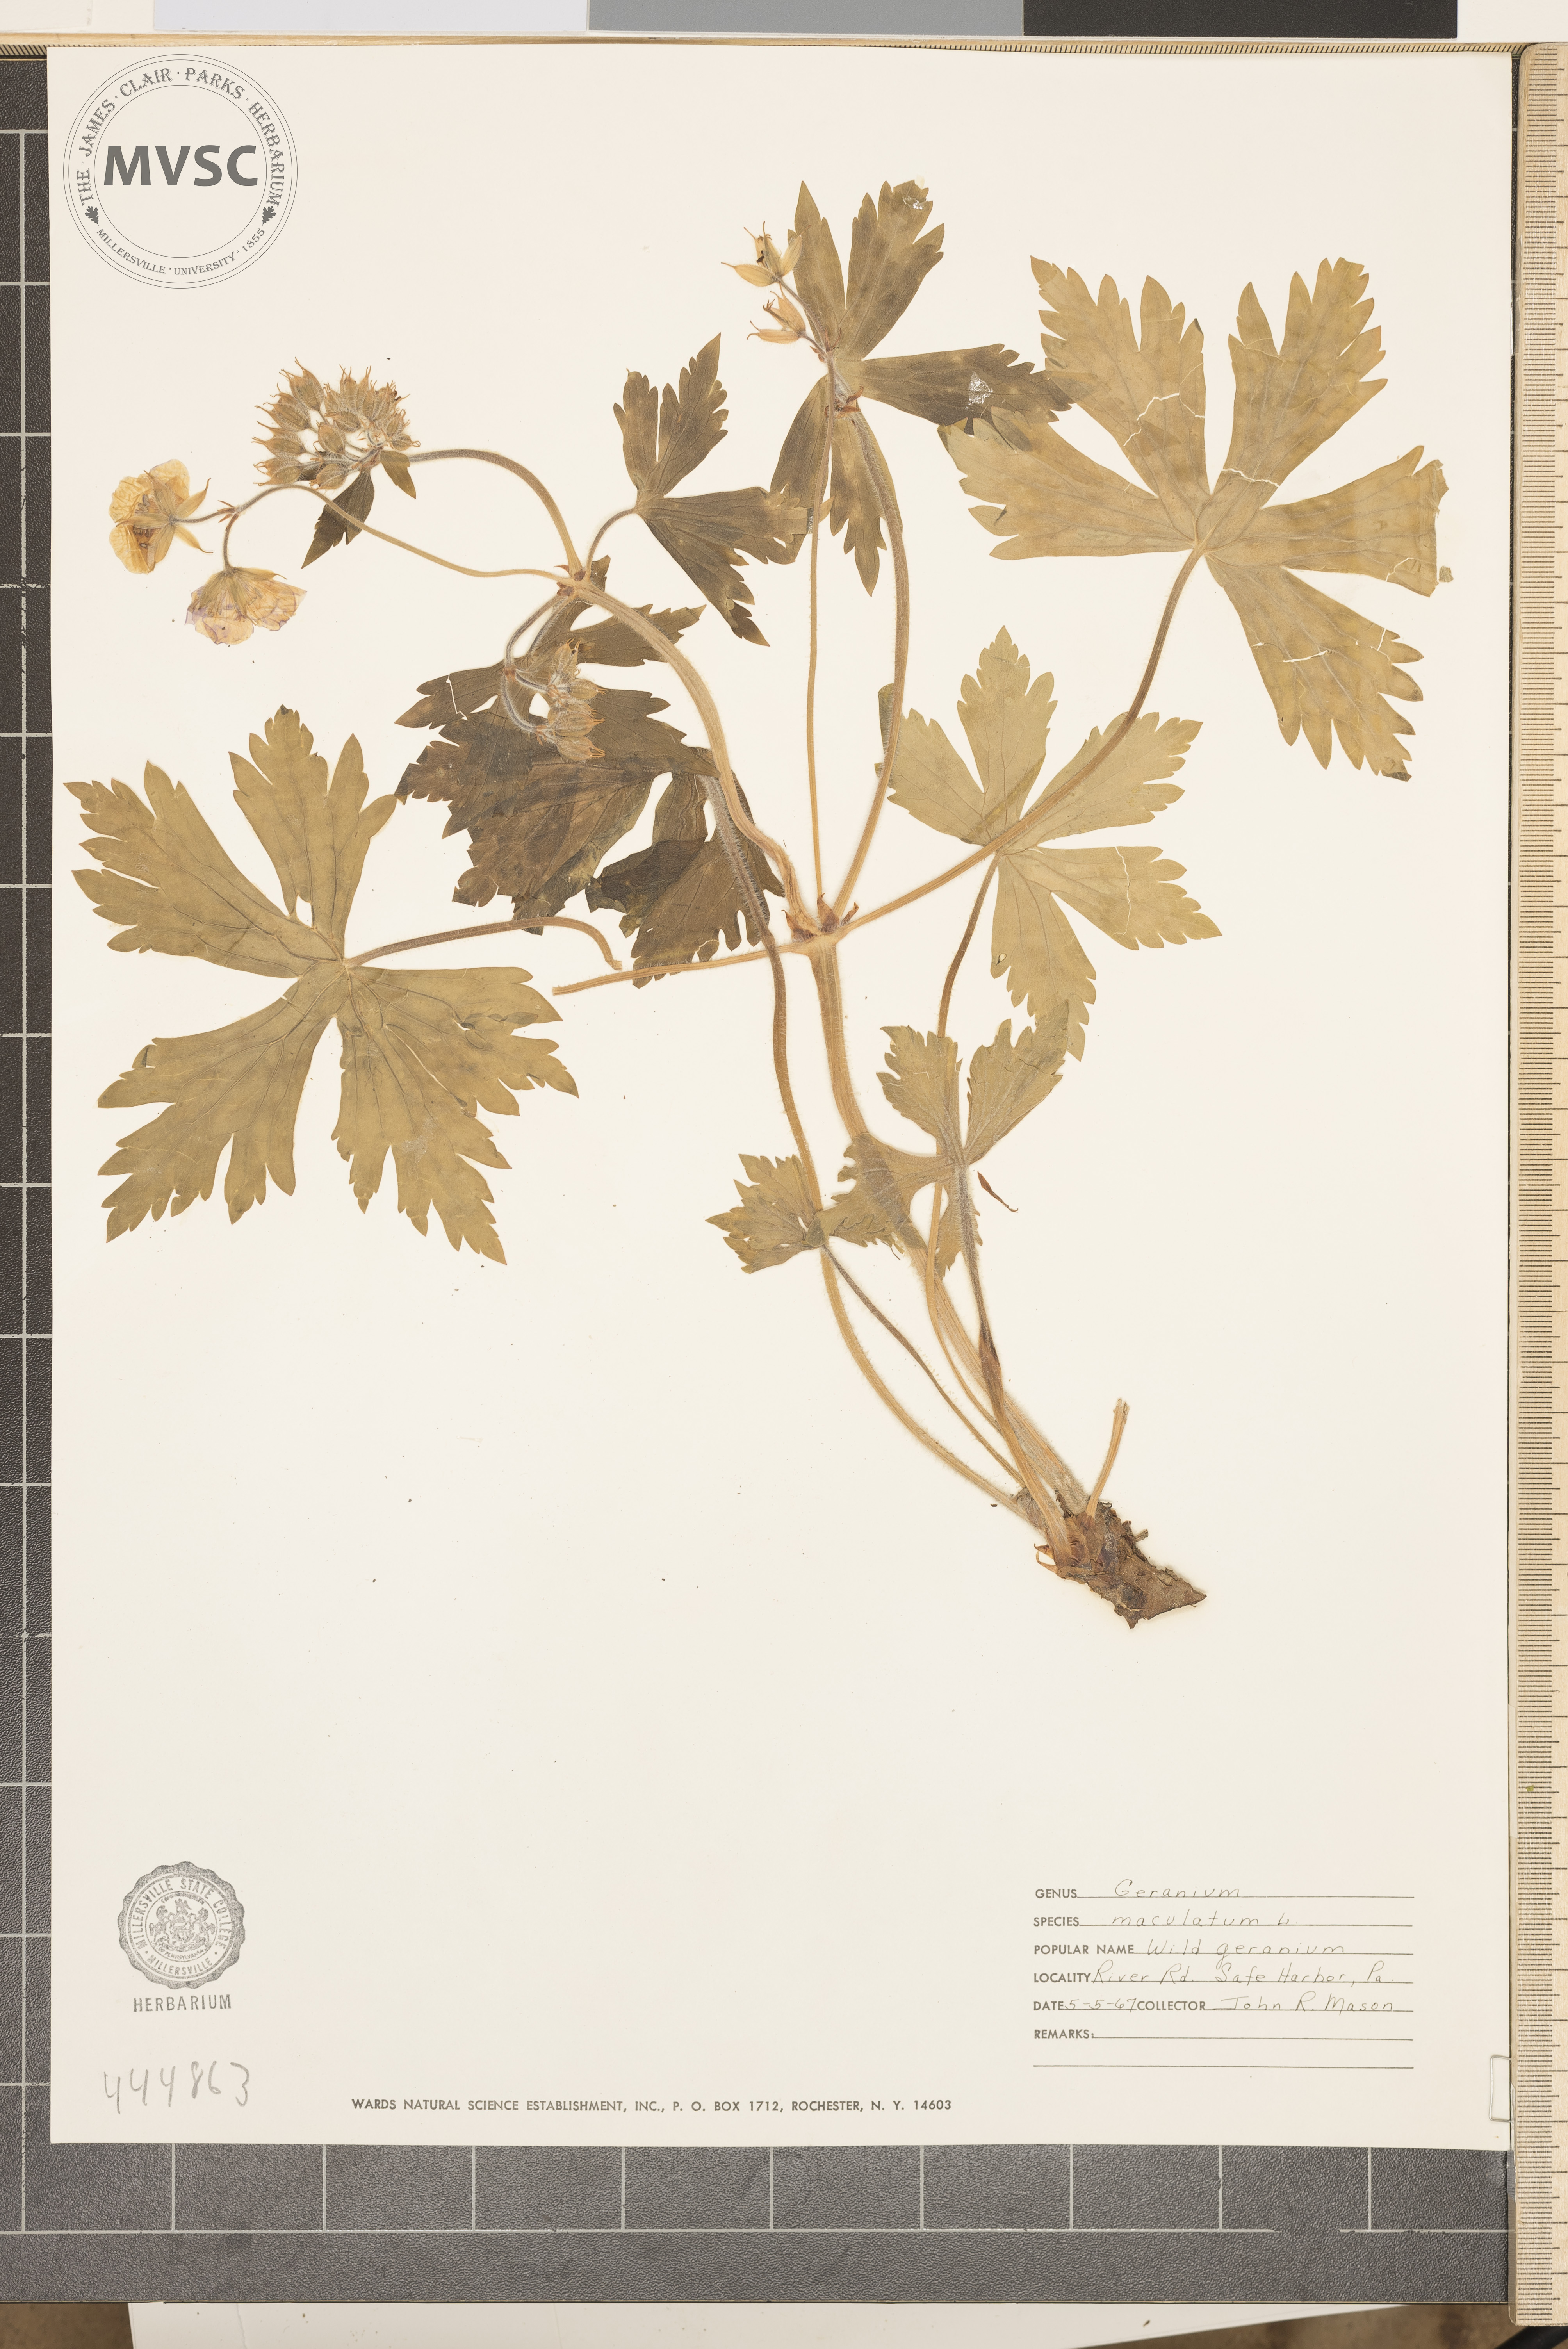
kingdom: Plantae
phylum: Tracheophyta
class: Magnoliopsida
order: Geraniales
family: Geraniaceae
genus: Geranium
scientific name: Geranium maculatum
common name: Spotted geranium
